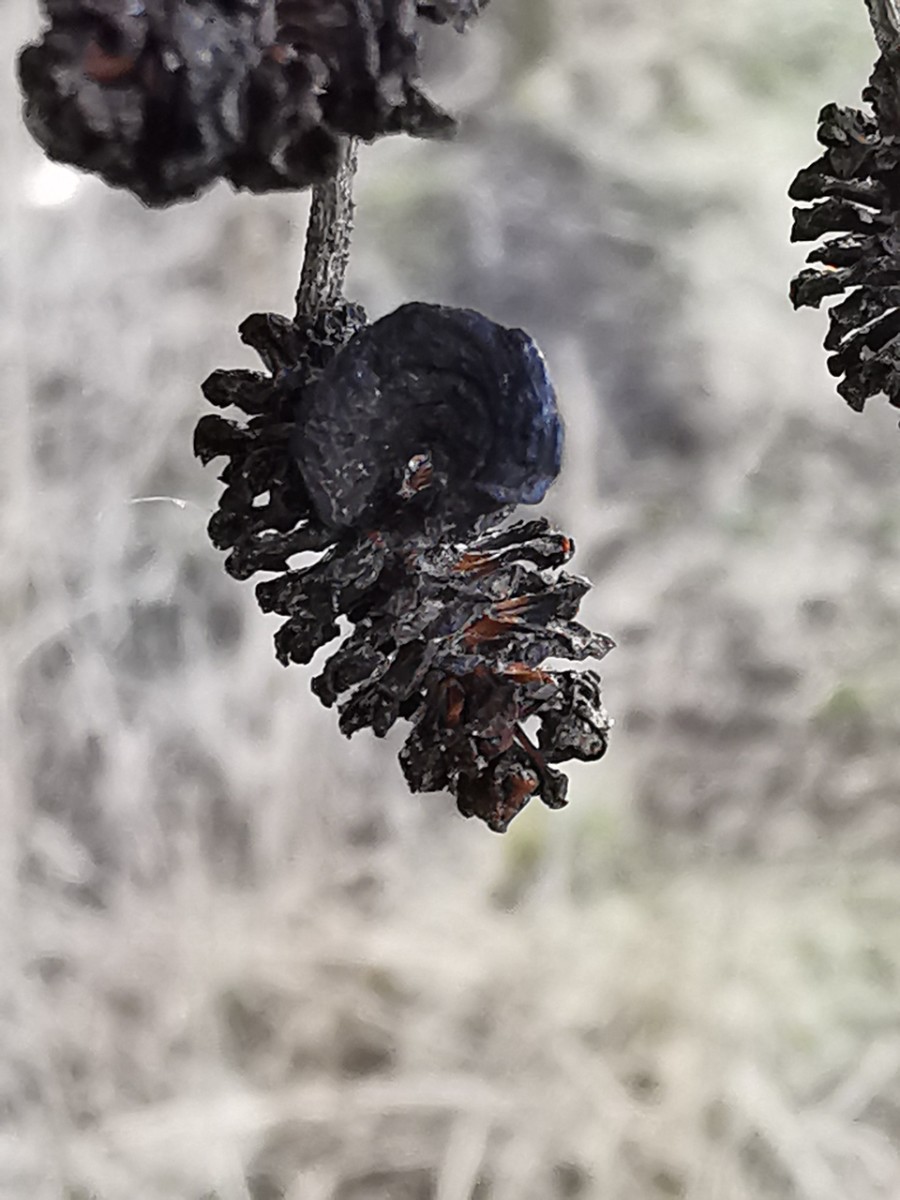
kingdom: Fungi
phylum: Ascomycota
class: Taphrinomycetes
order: Taphrinales
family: Taphrinaceae
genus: Taphrina
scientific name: Taphrina alni
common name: Alder tongue
